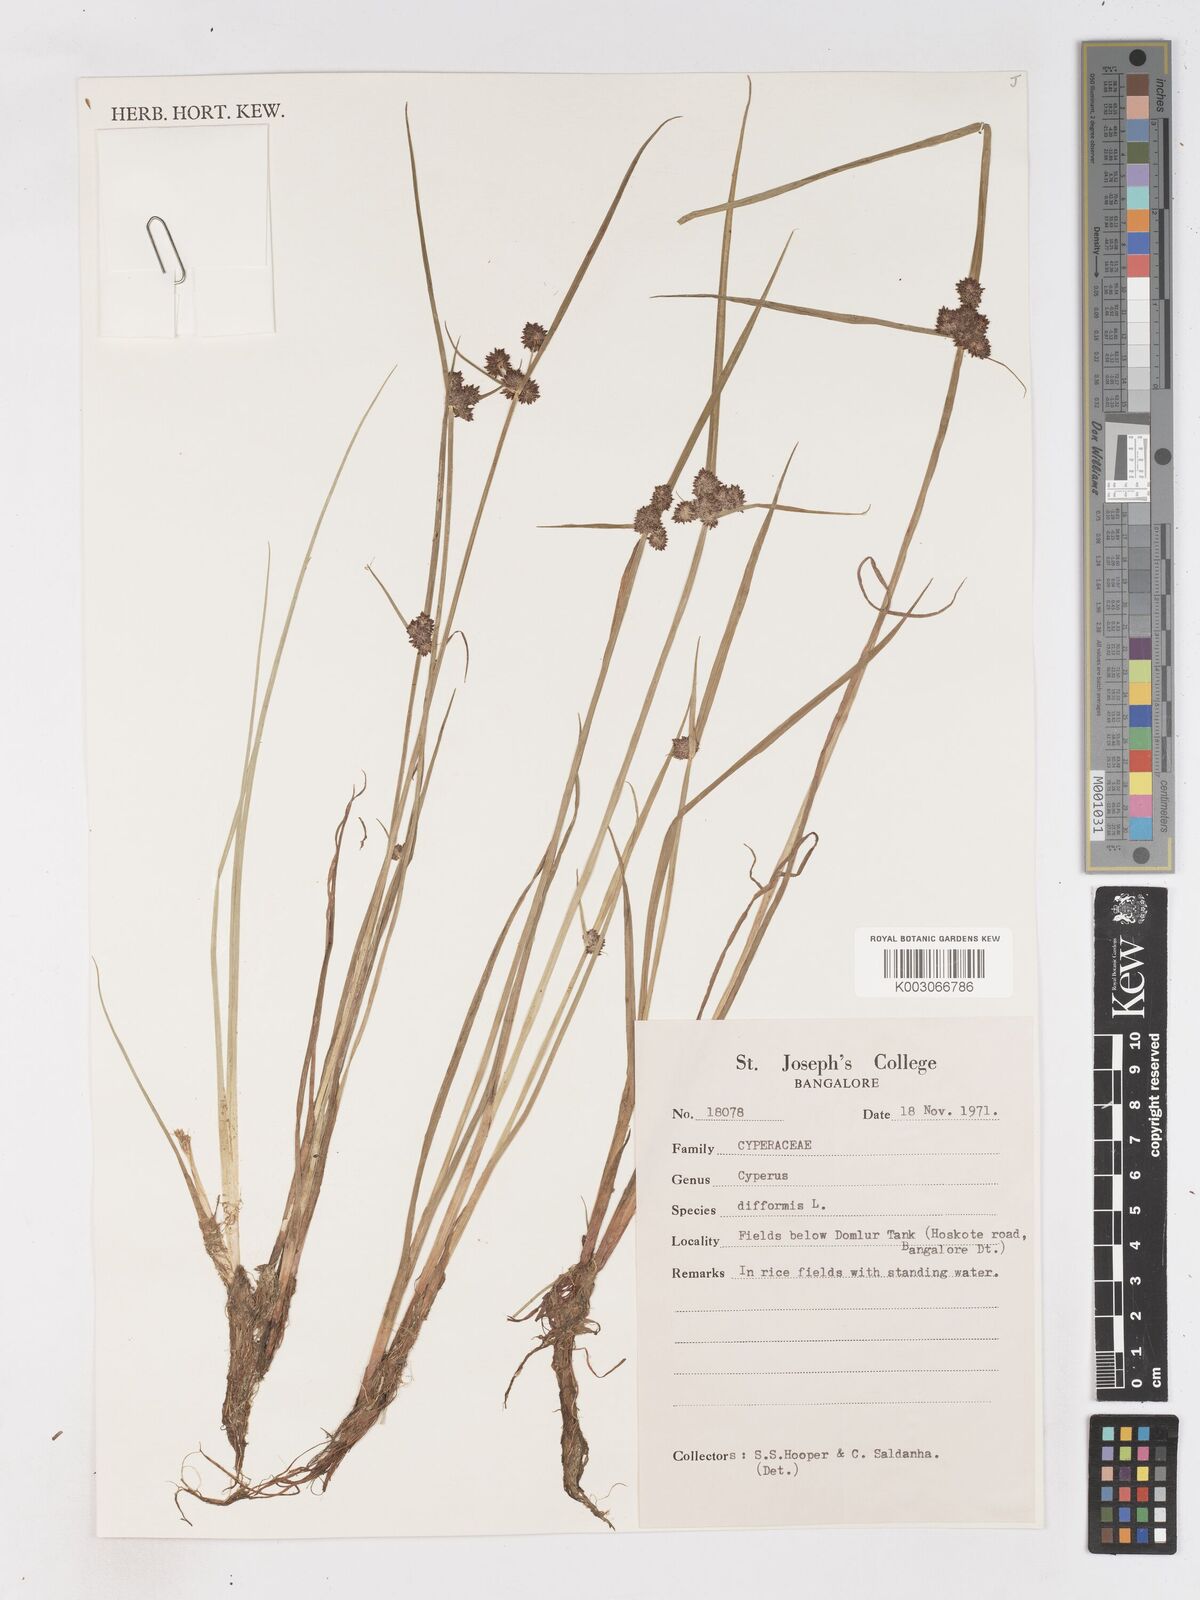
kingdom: Plantae
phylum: Tracheophyta
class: Liliopsida
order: Poales
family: Cyperaceae
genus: Cyperus
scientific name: Cyperus difformis
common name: Variable flatsedge
